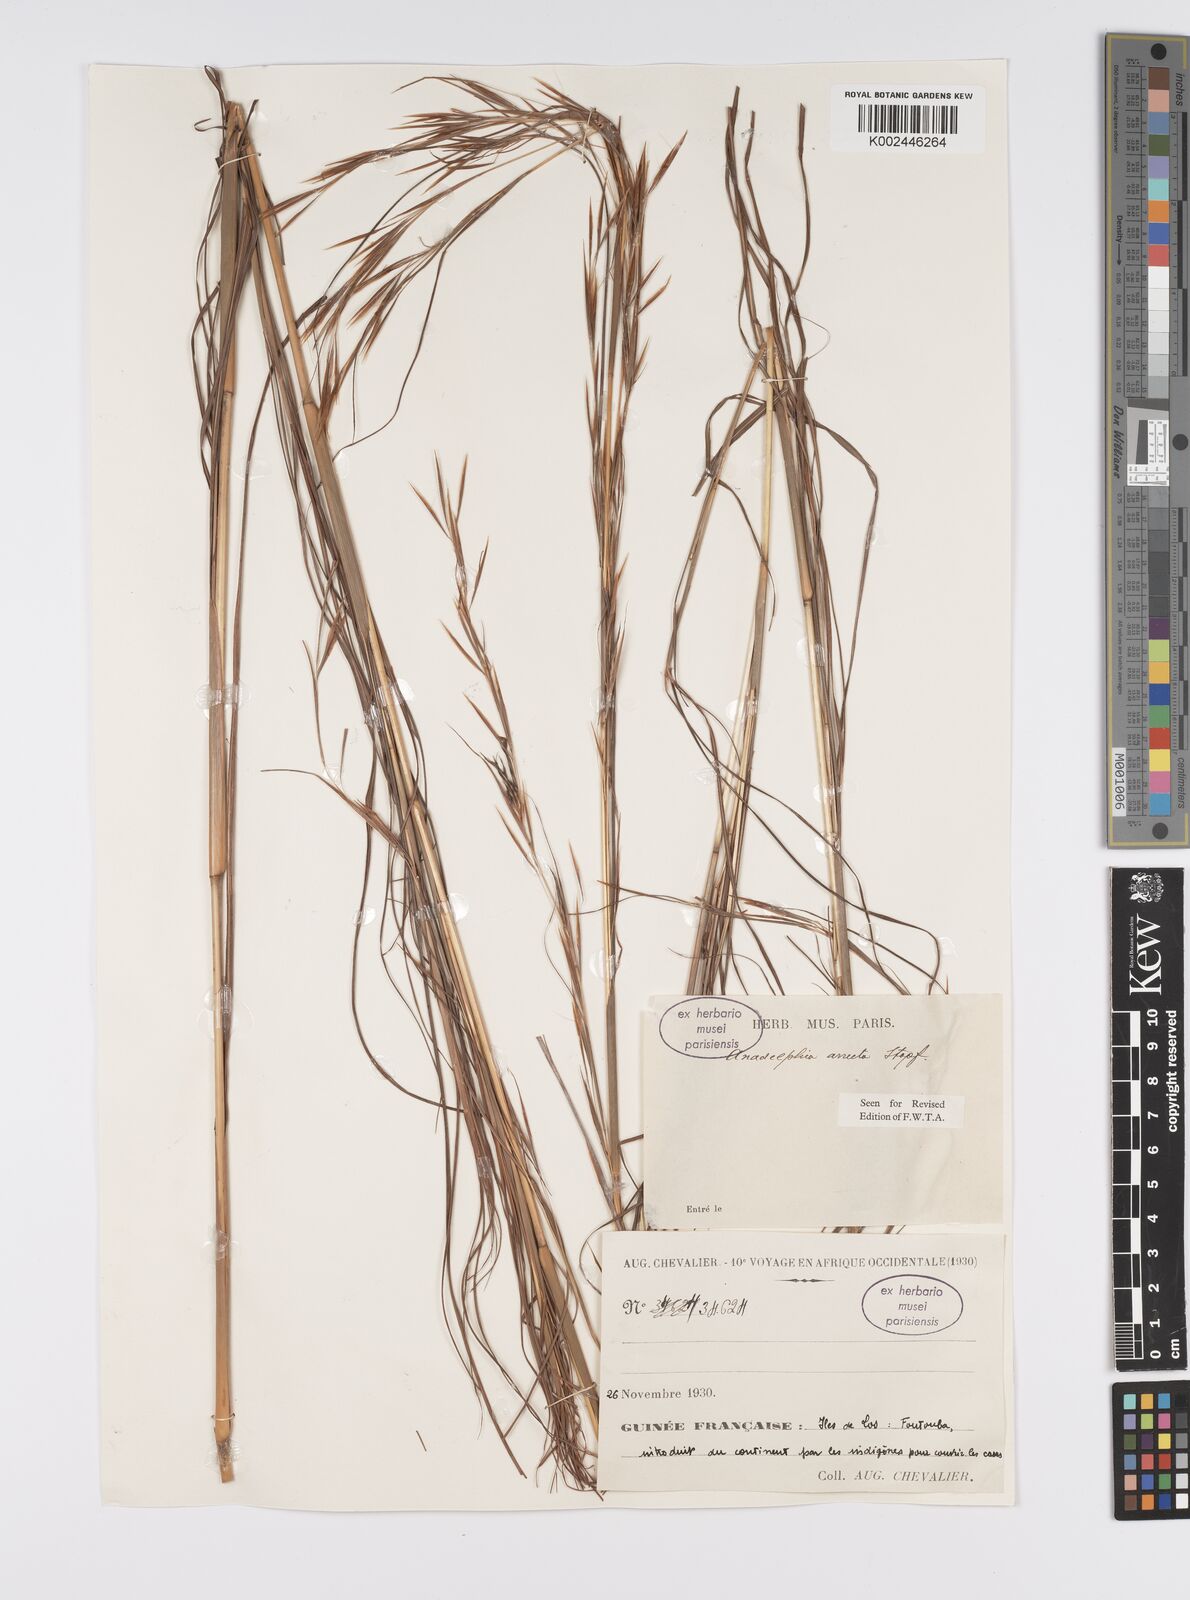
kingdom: Plantae
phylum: Tracheophyta
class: Liliopsida
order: Poales
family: Poaceae
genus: Anadelphia
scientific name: Anadelphia afzeliana
